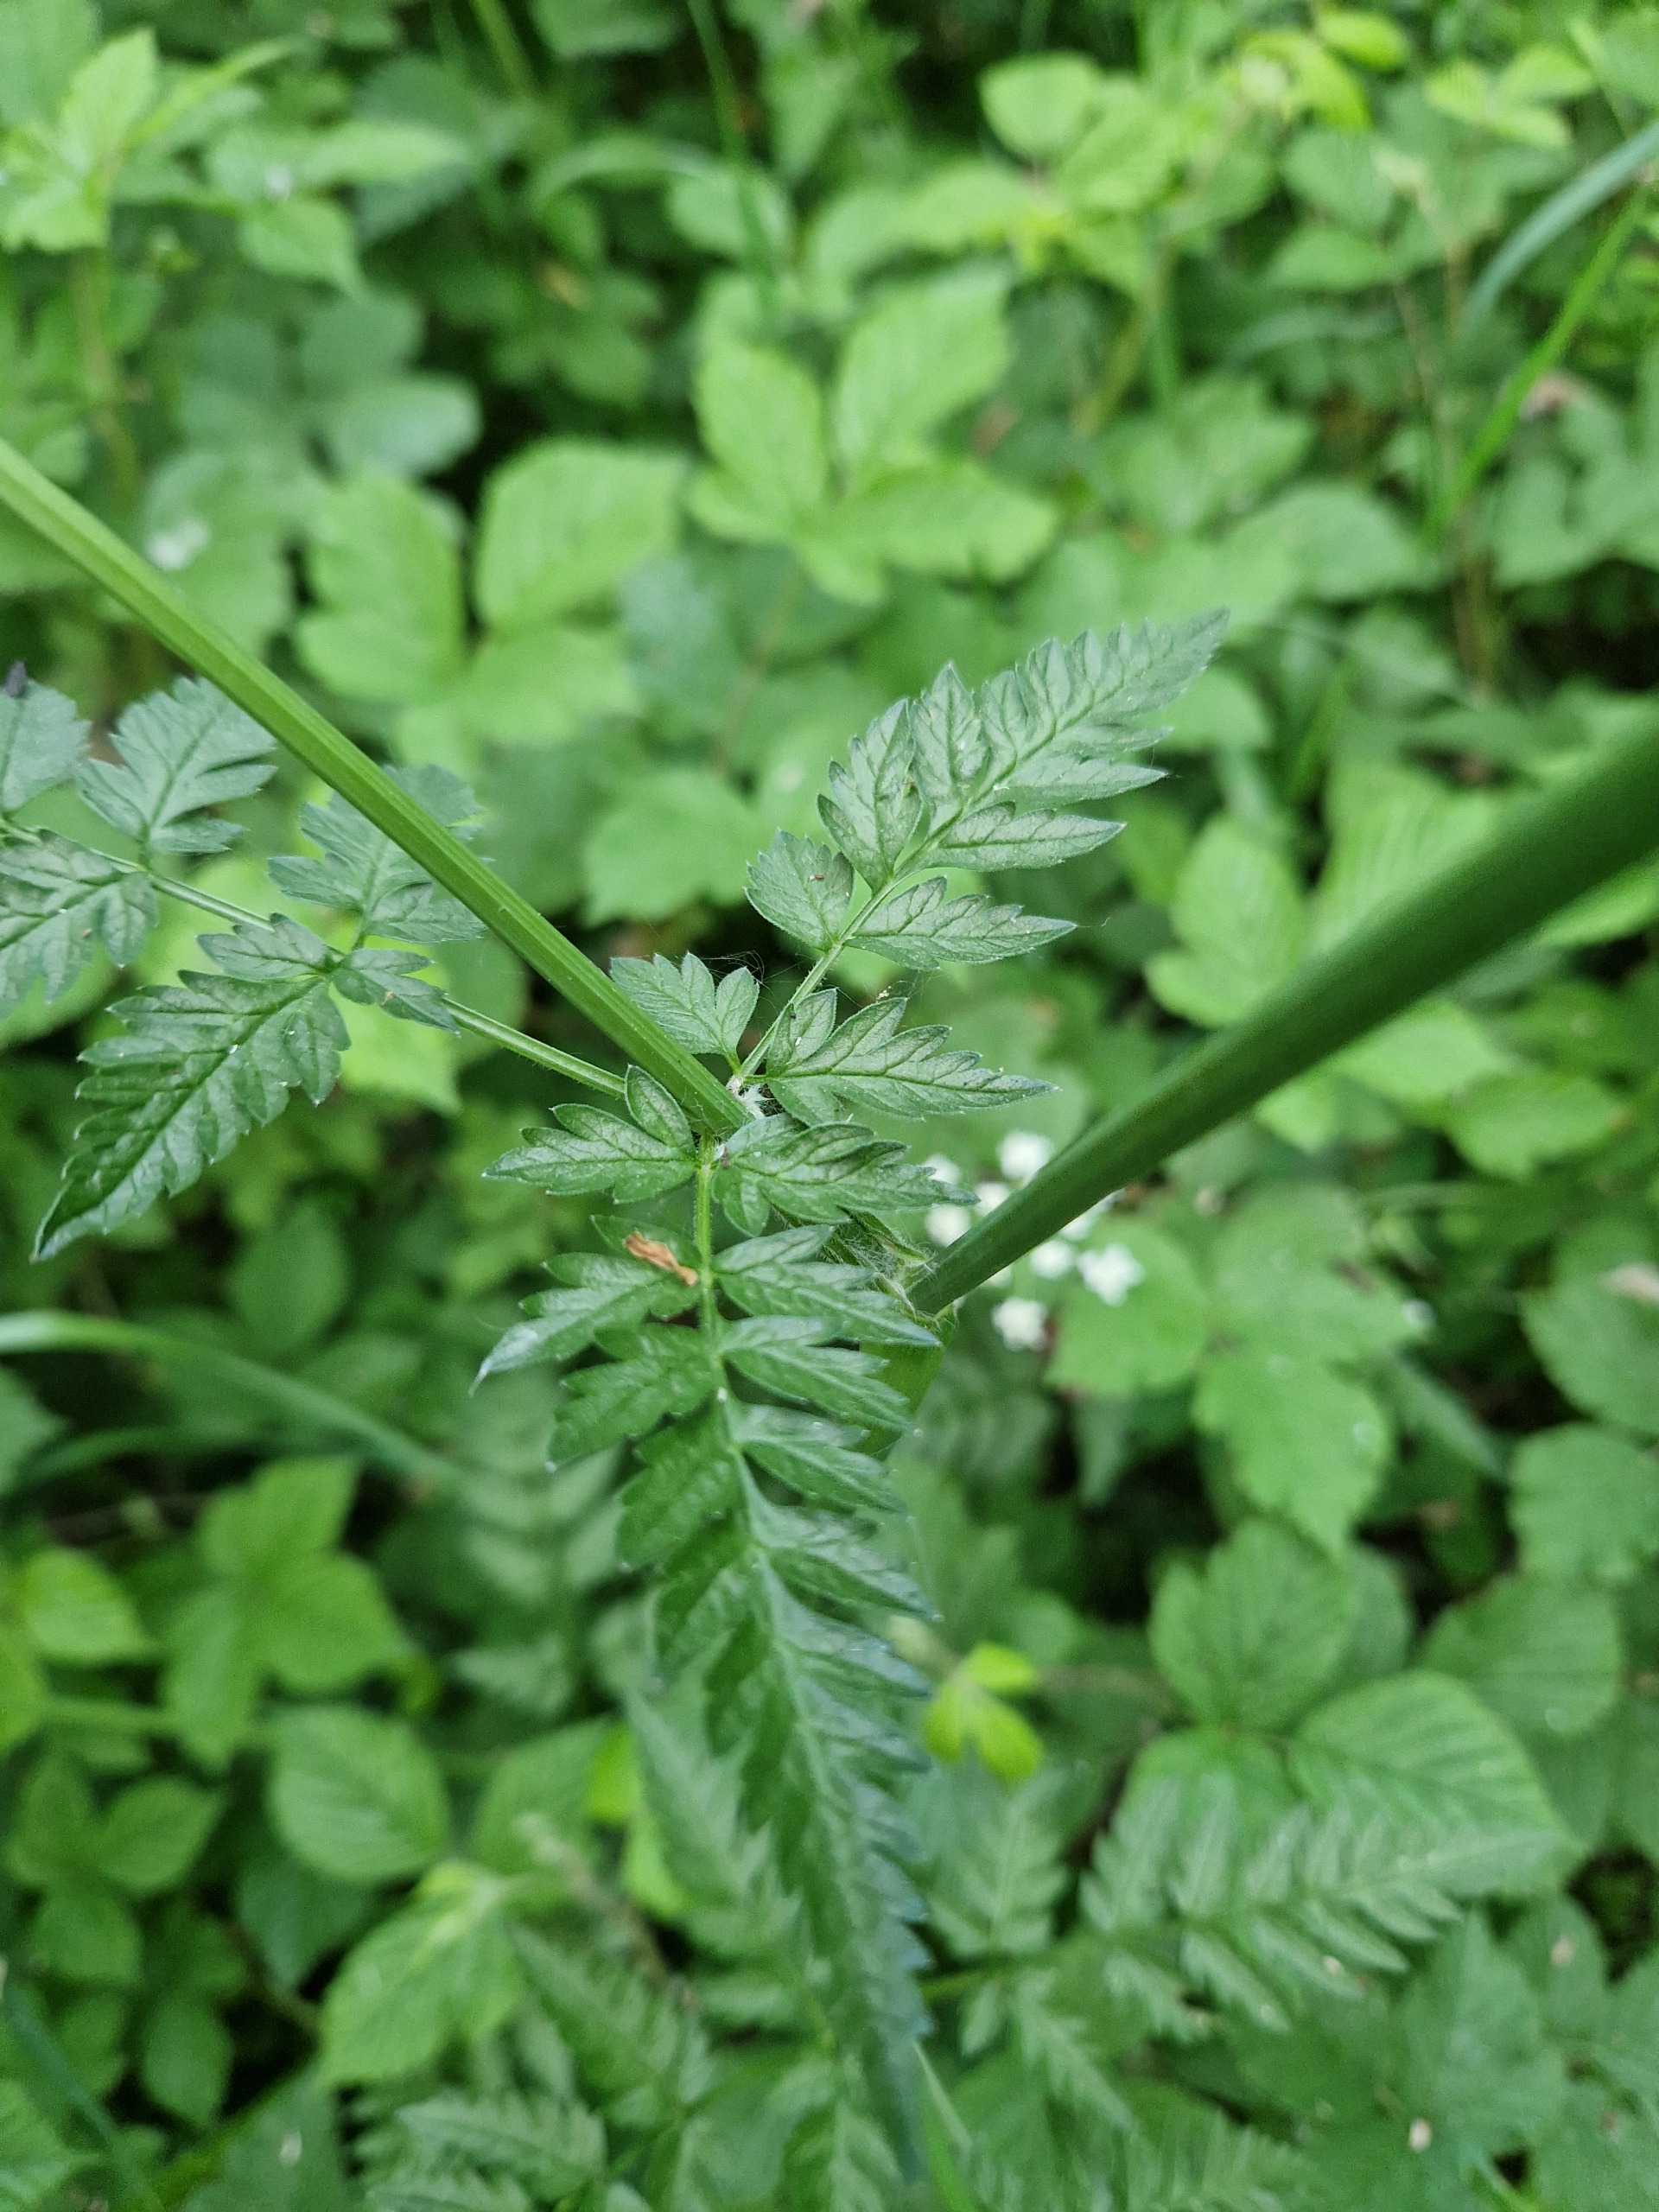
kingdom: Plantae
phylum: Tracheophyta
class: Magnoliopsida
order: Apiales
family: Apiaceae
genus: Anthriscus
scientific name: Anthriscus sylvestris
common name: Vild kørvel
